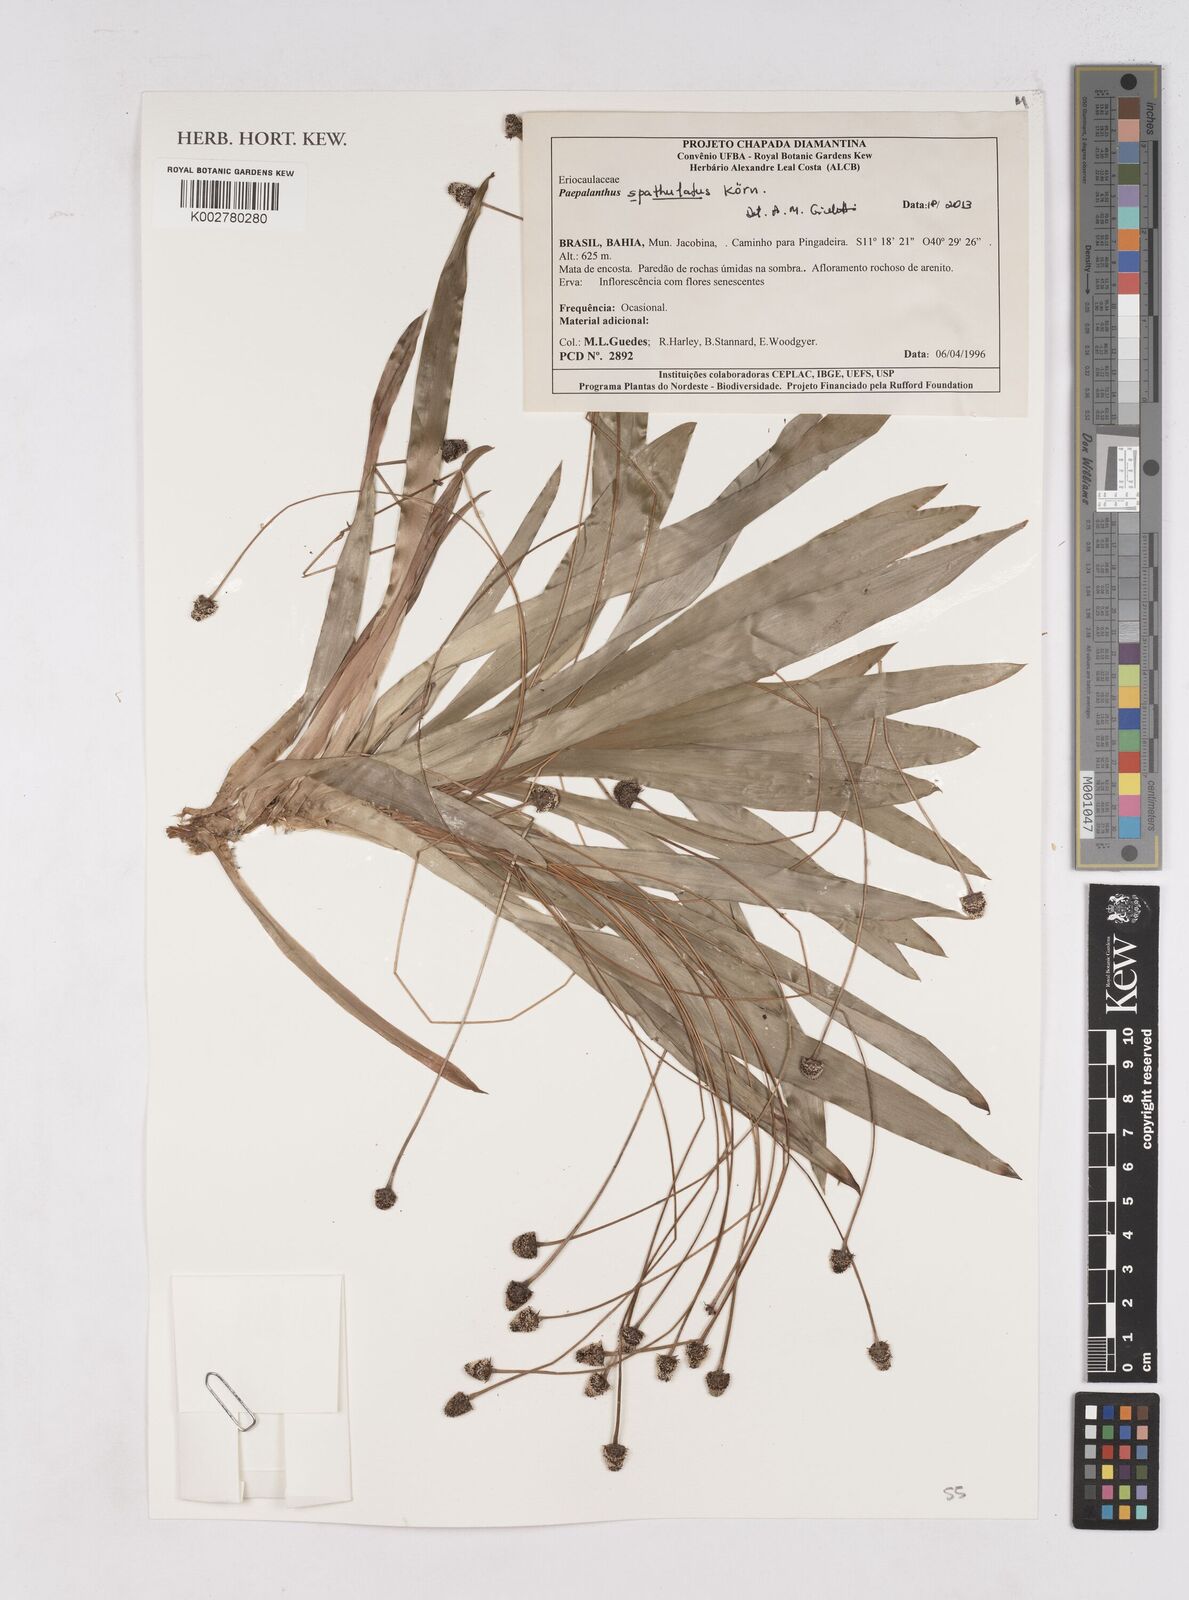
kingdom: Plantae
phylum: Tracheophyta
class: Liliopsida
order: Poales
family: Eriocaulaceae
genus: Paepalanthus
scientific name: Paepalanthus spathulatus
